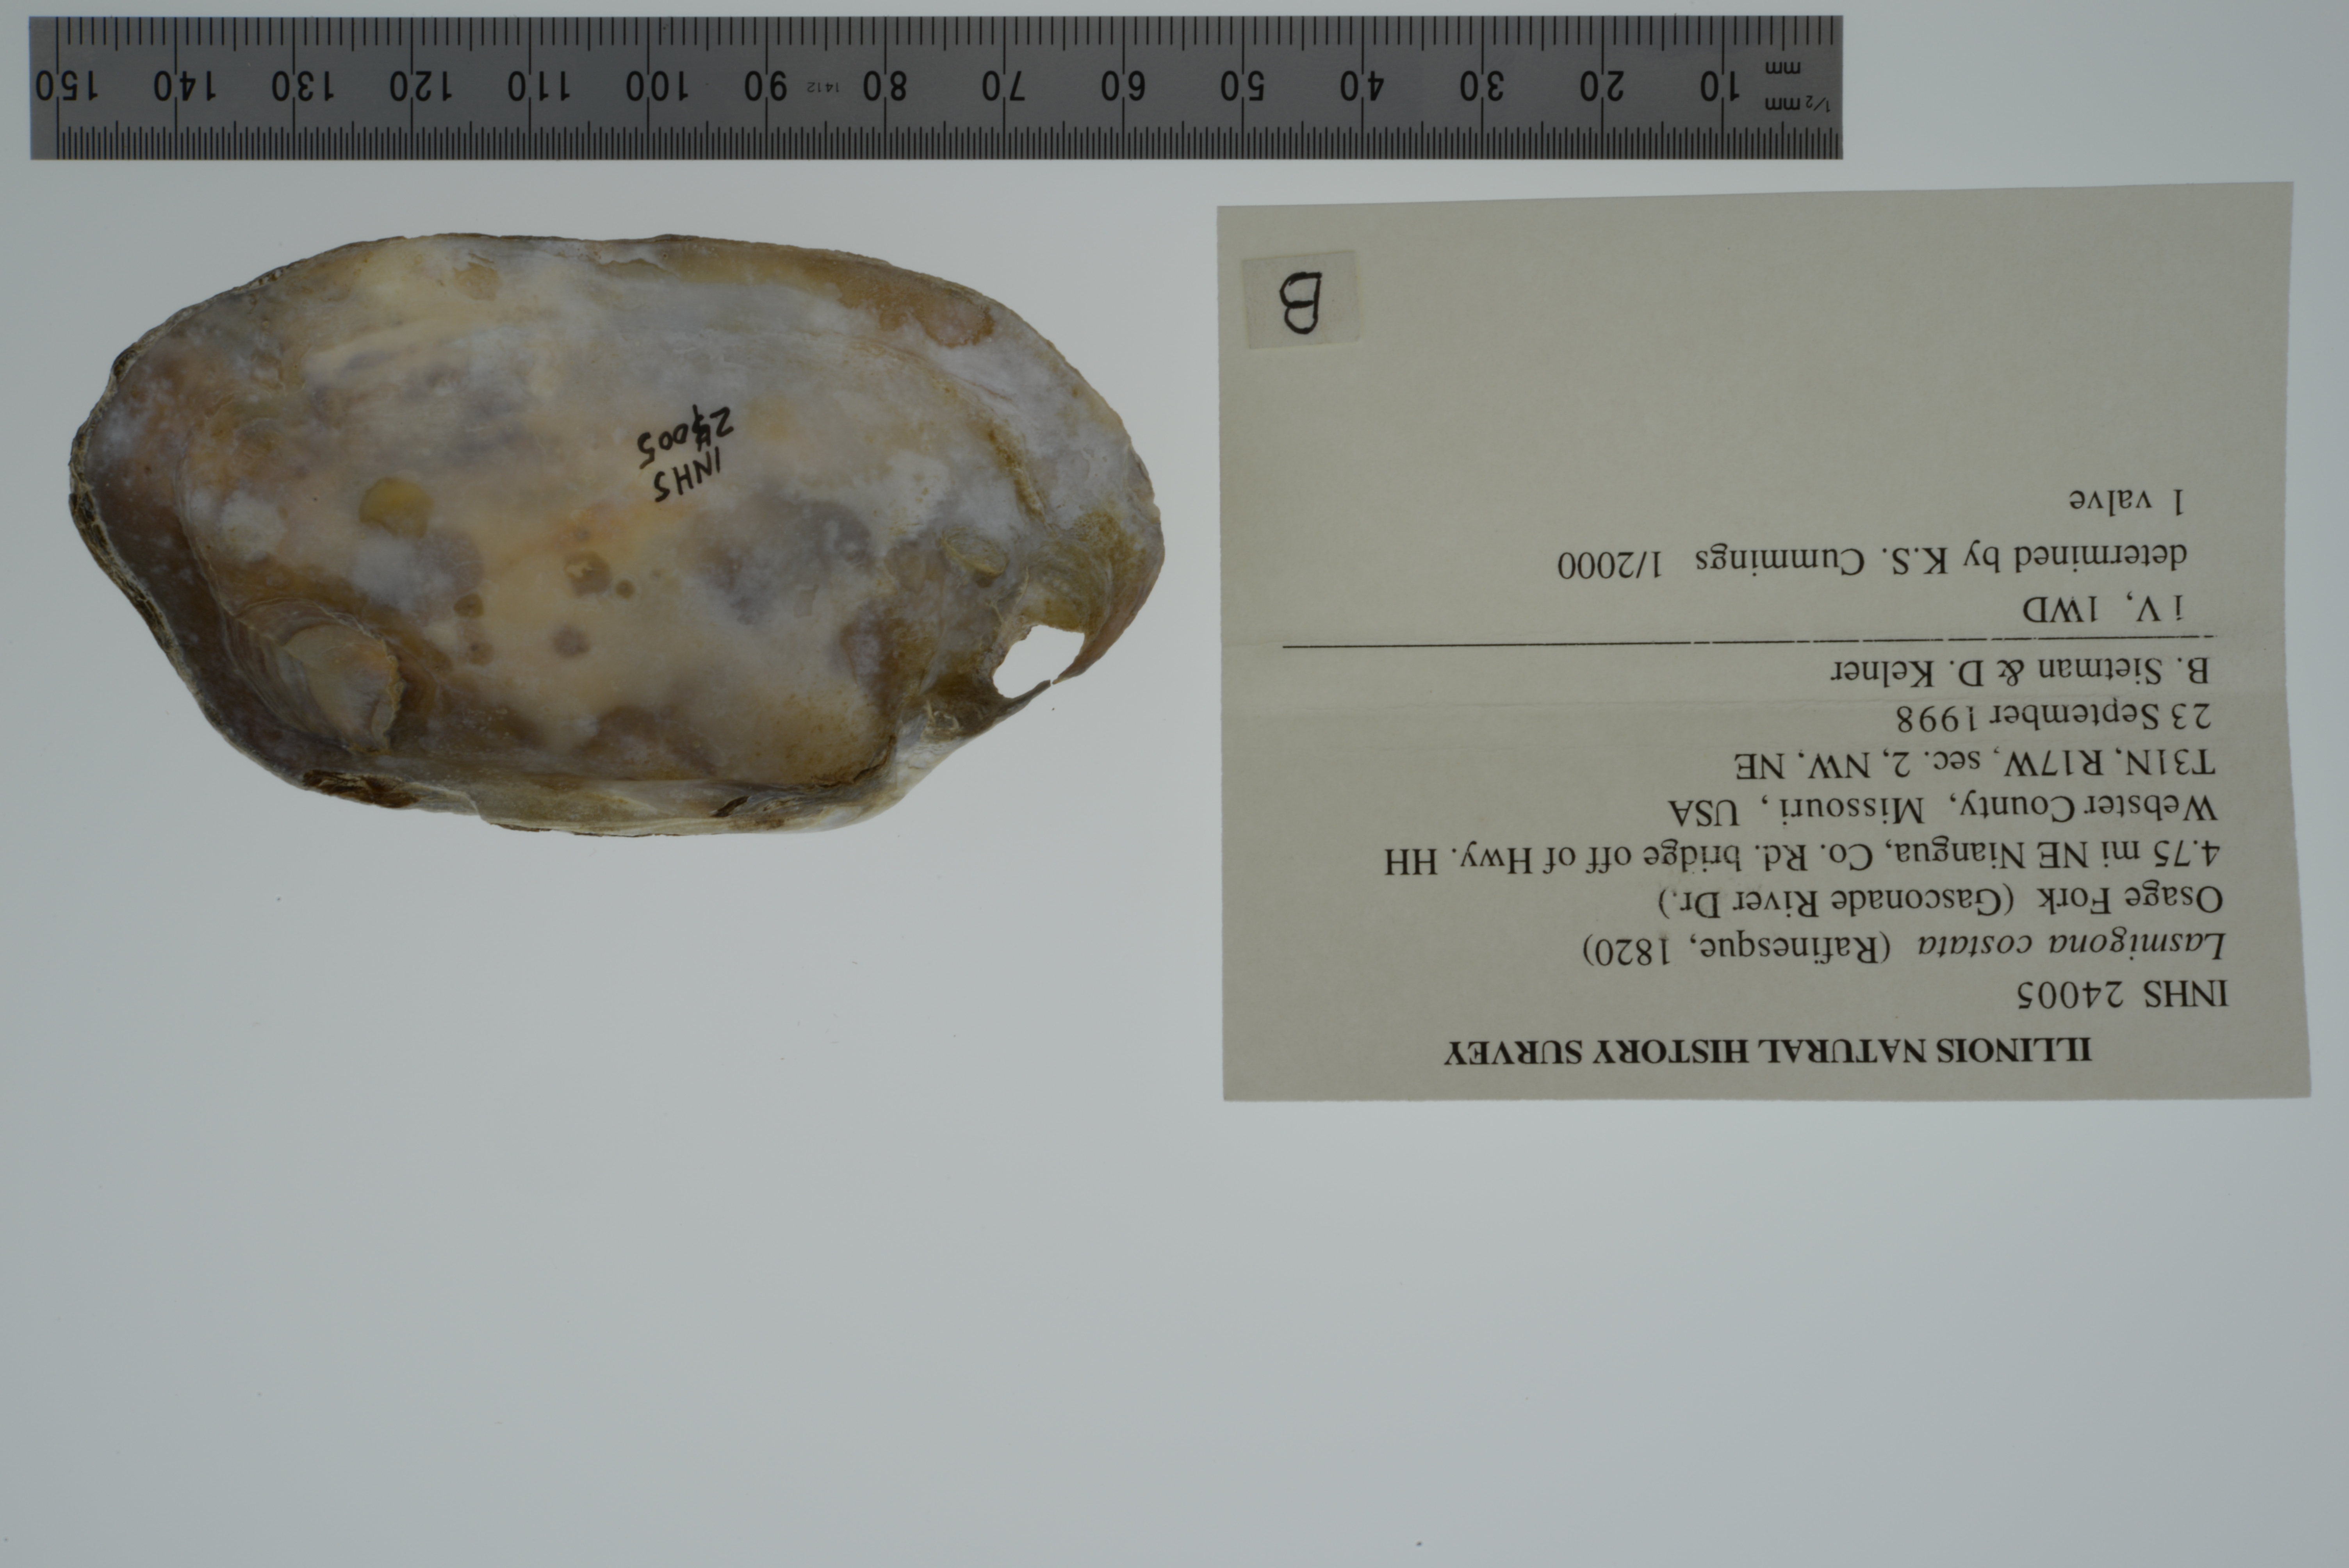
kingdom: Animalia
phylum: Mollusca
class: Bivalvia
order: Unionida
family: Unionidae
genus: Lasmigona
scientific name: Lasmigona costata
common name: Flutedshell
